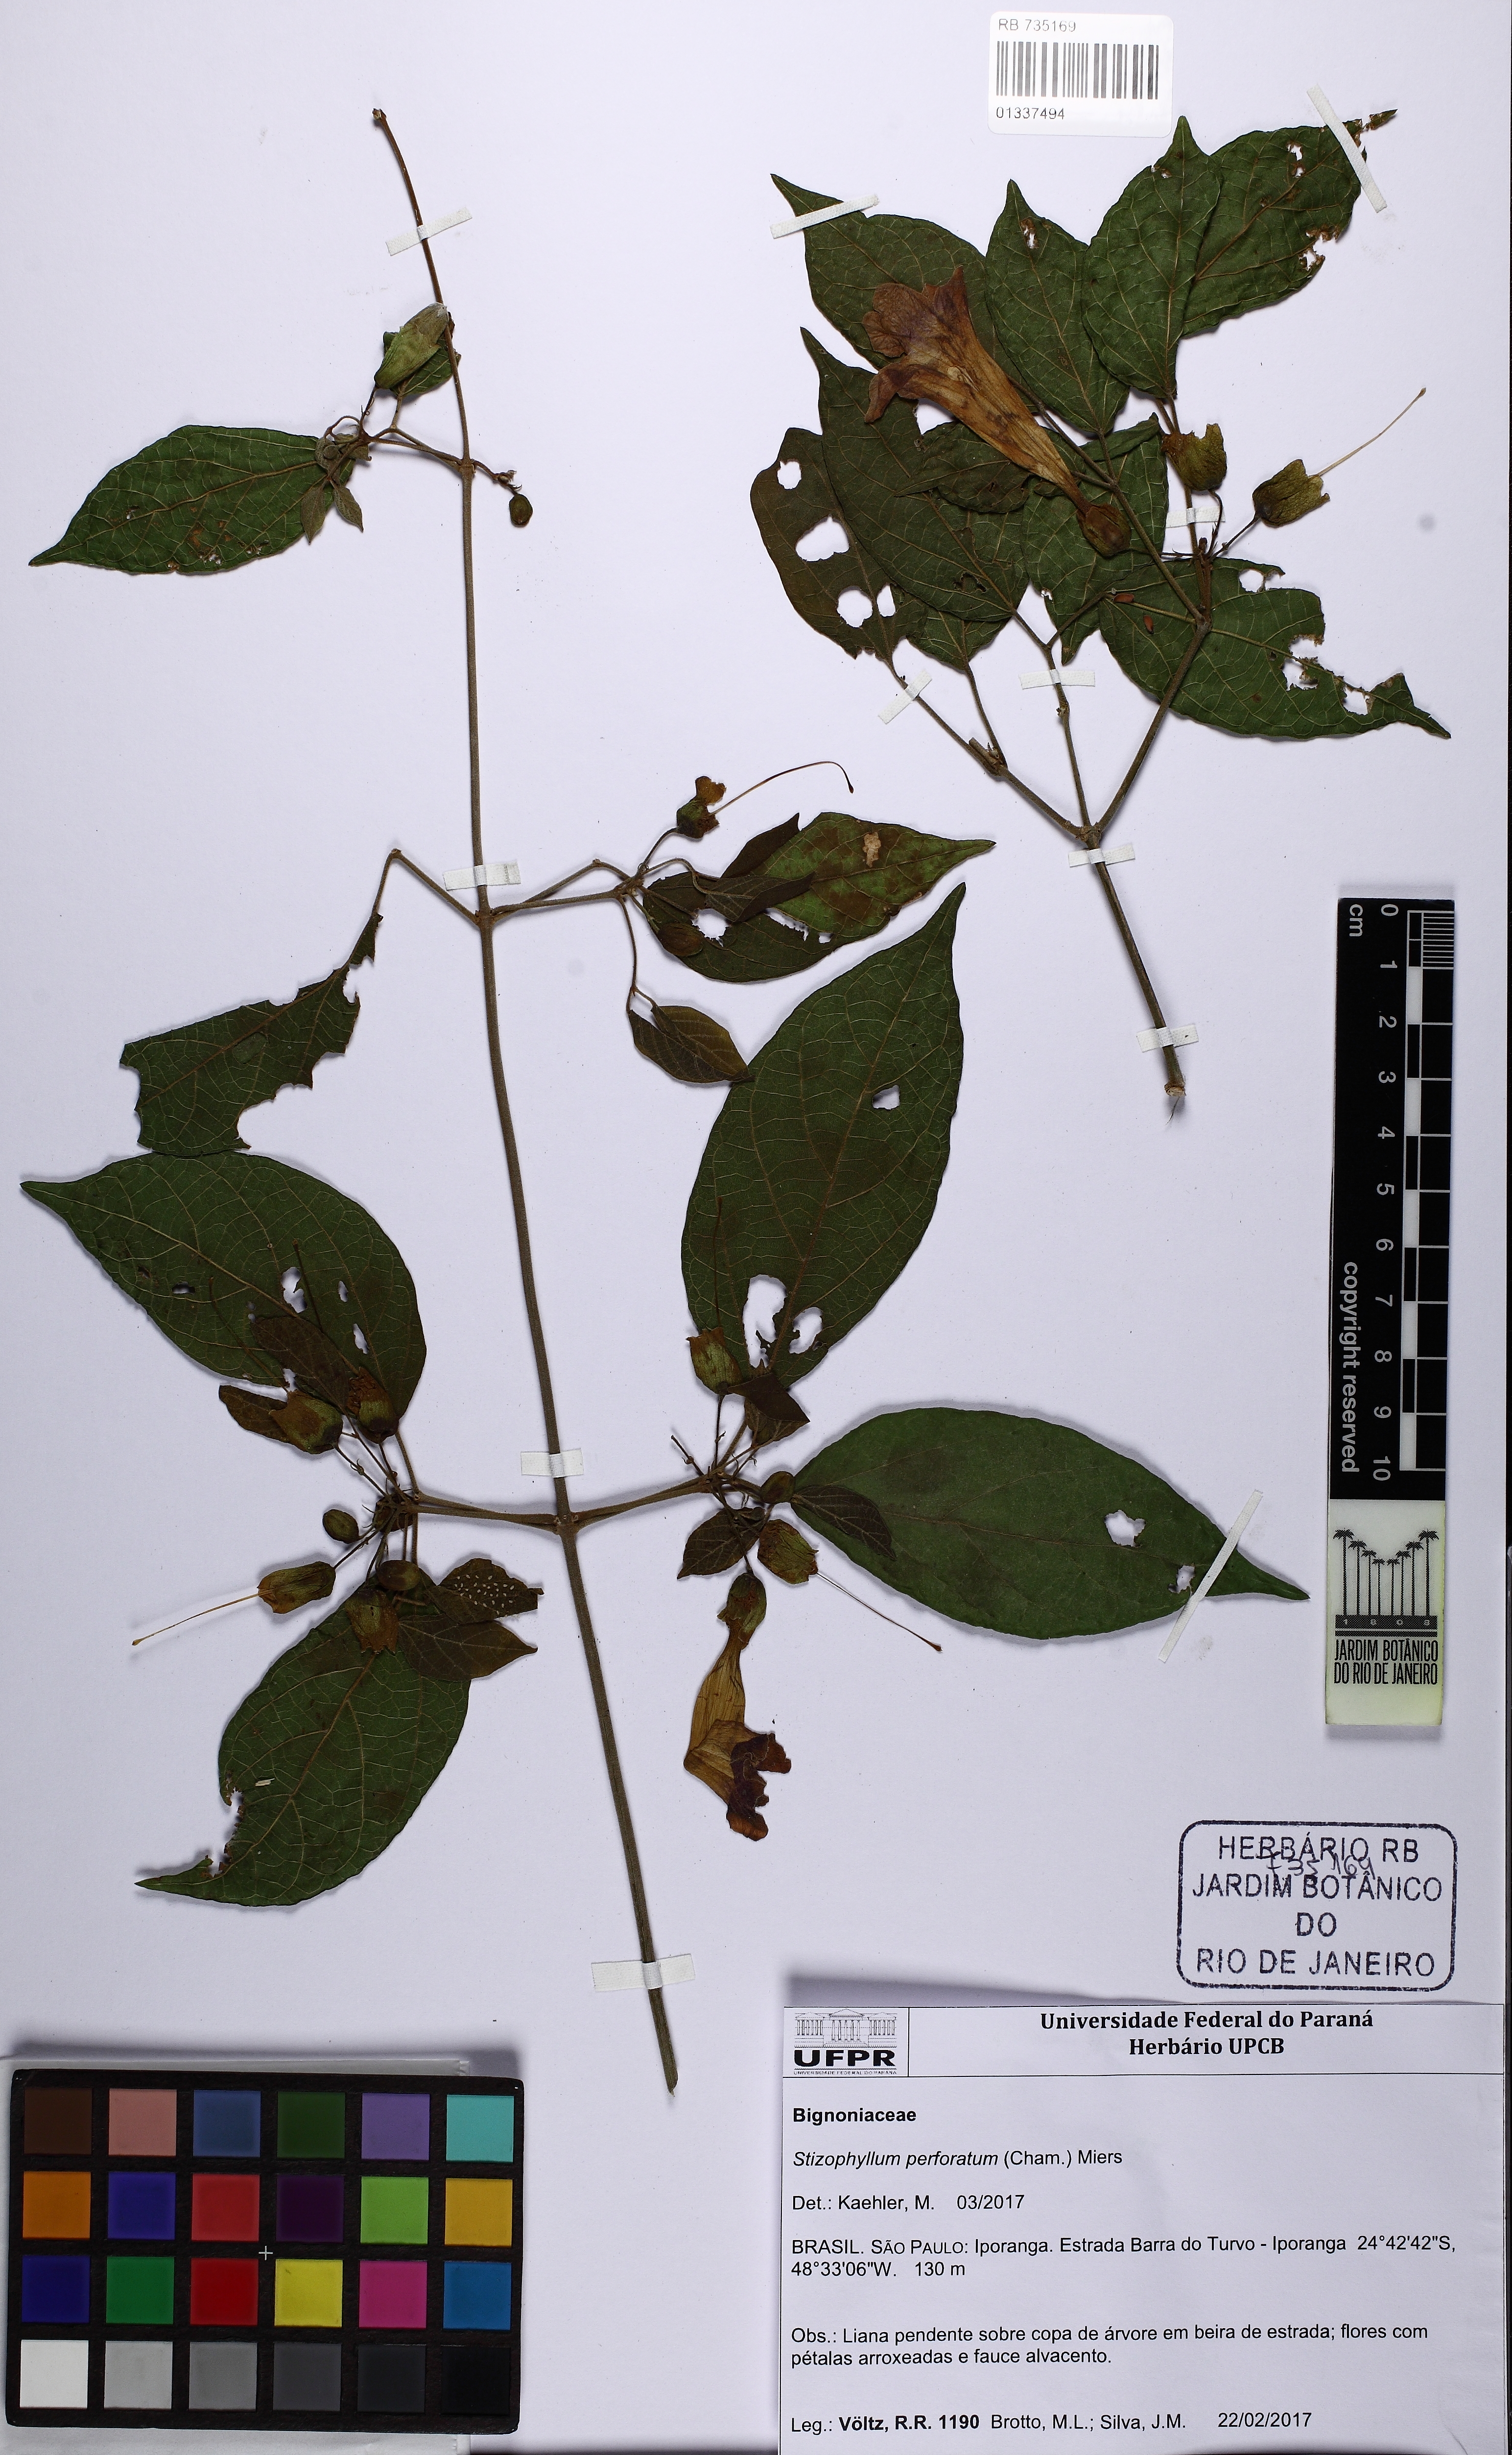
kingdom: Plantae
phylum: Tracheophyta
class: Magnoliopsida
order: Lamiales
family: Bignoniaceae
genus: Stizophyllum
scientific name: Stizophyllum perforatum
